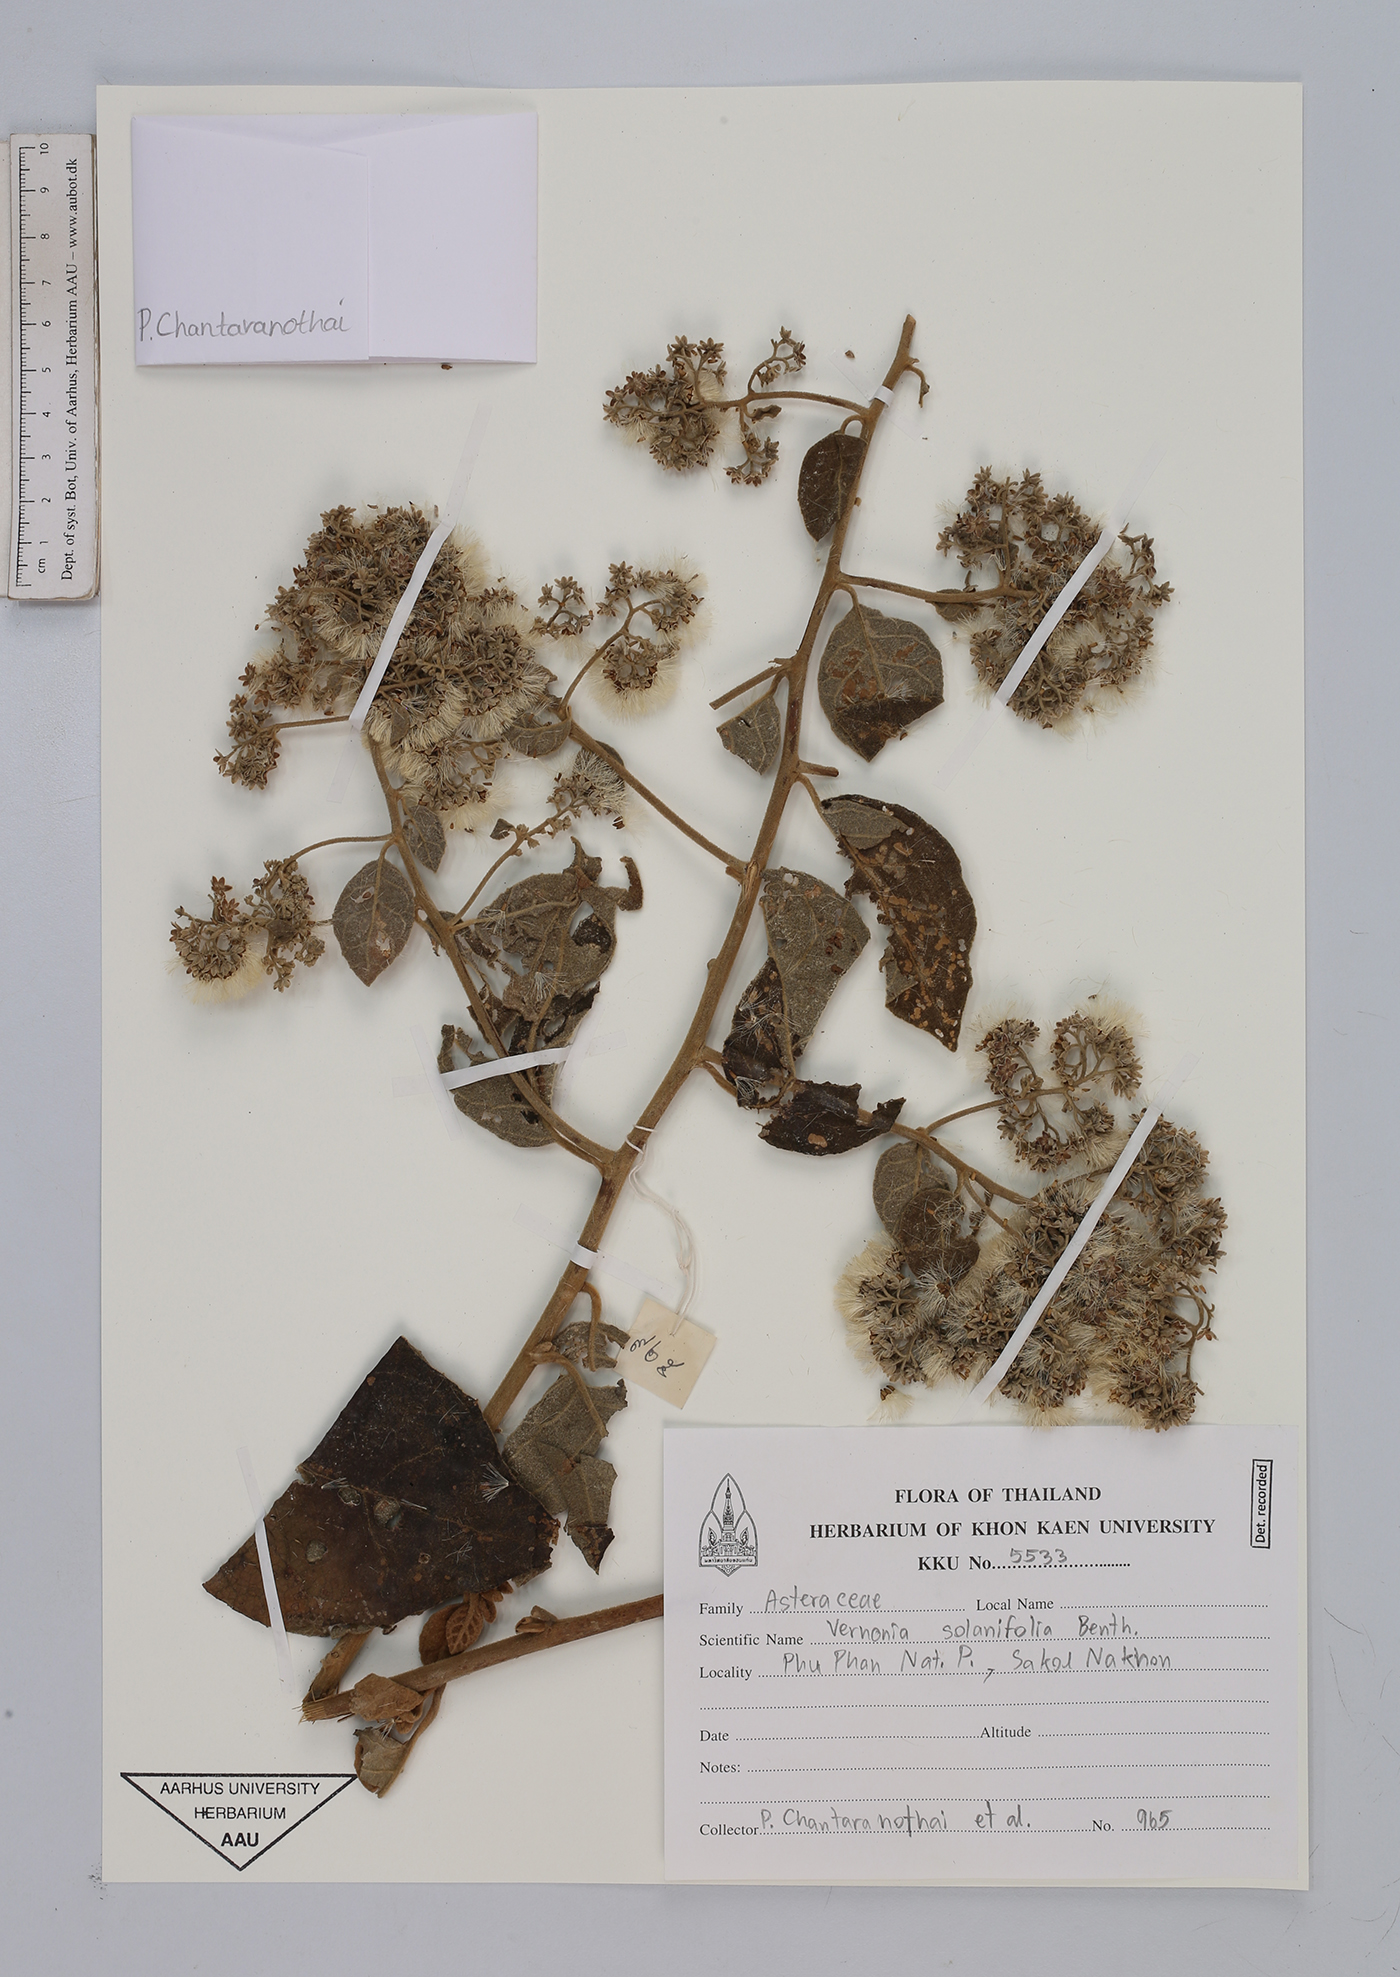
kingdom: Plantae
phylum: Tracheophyta
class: Magnoliopsida
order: Asterales
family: Asteraceae
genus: Strobocalyx
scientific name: Strobocalyx solanifolia
